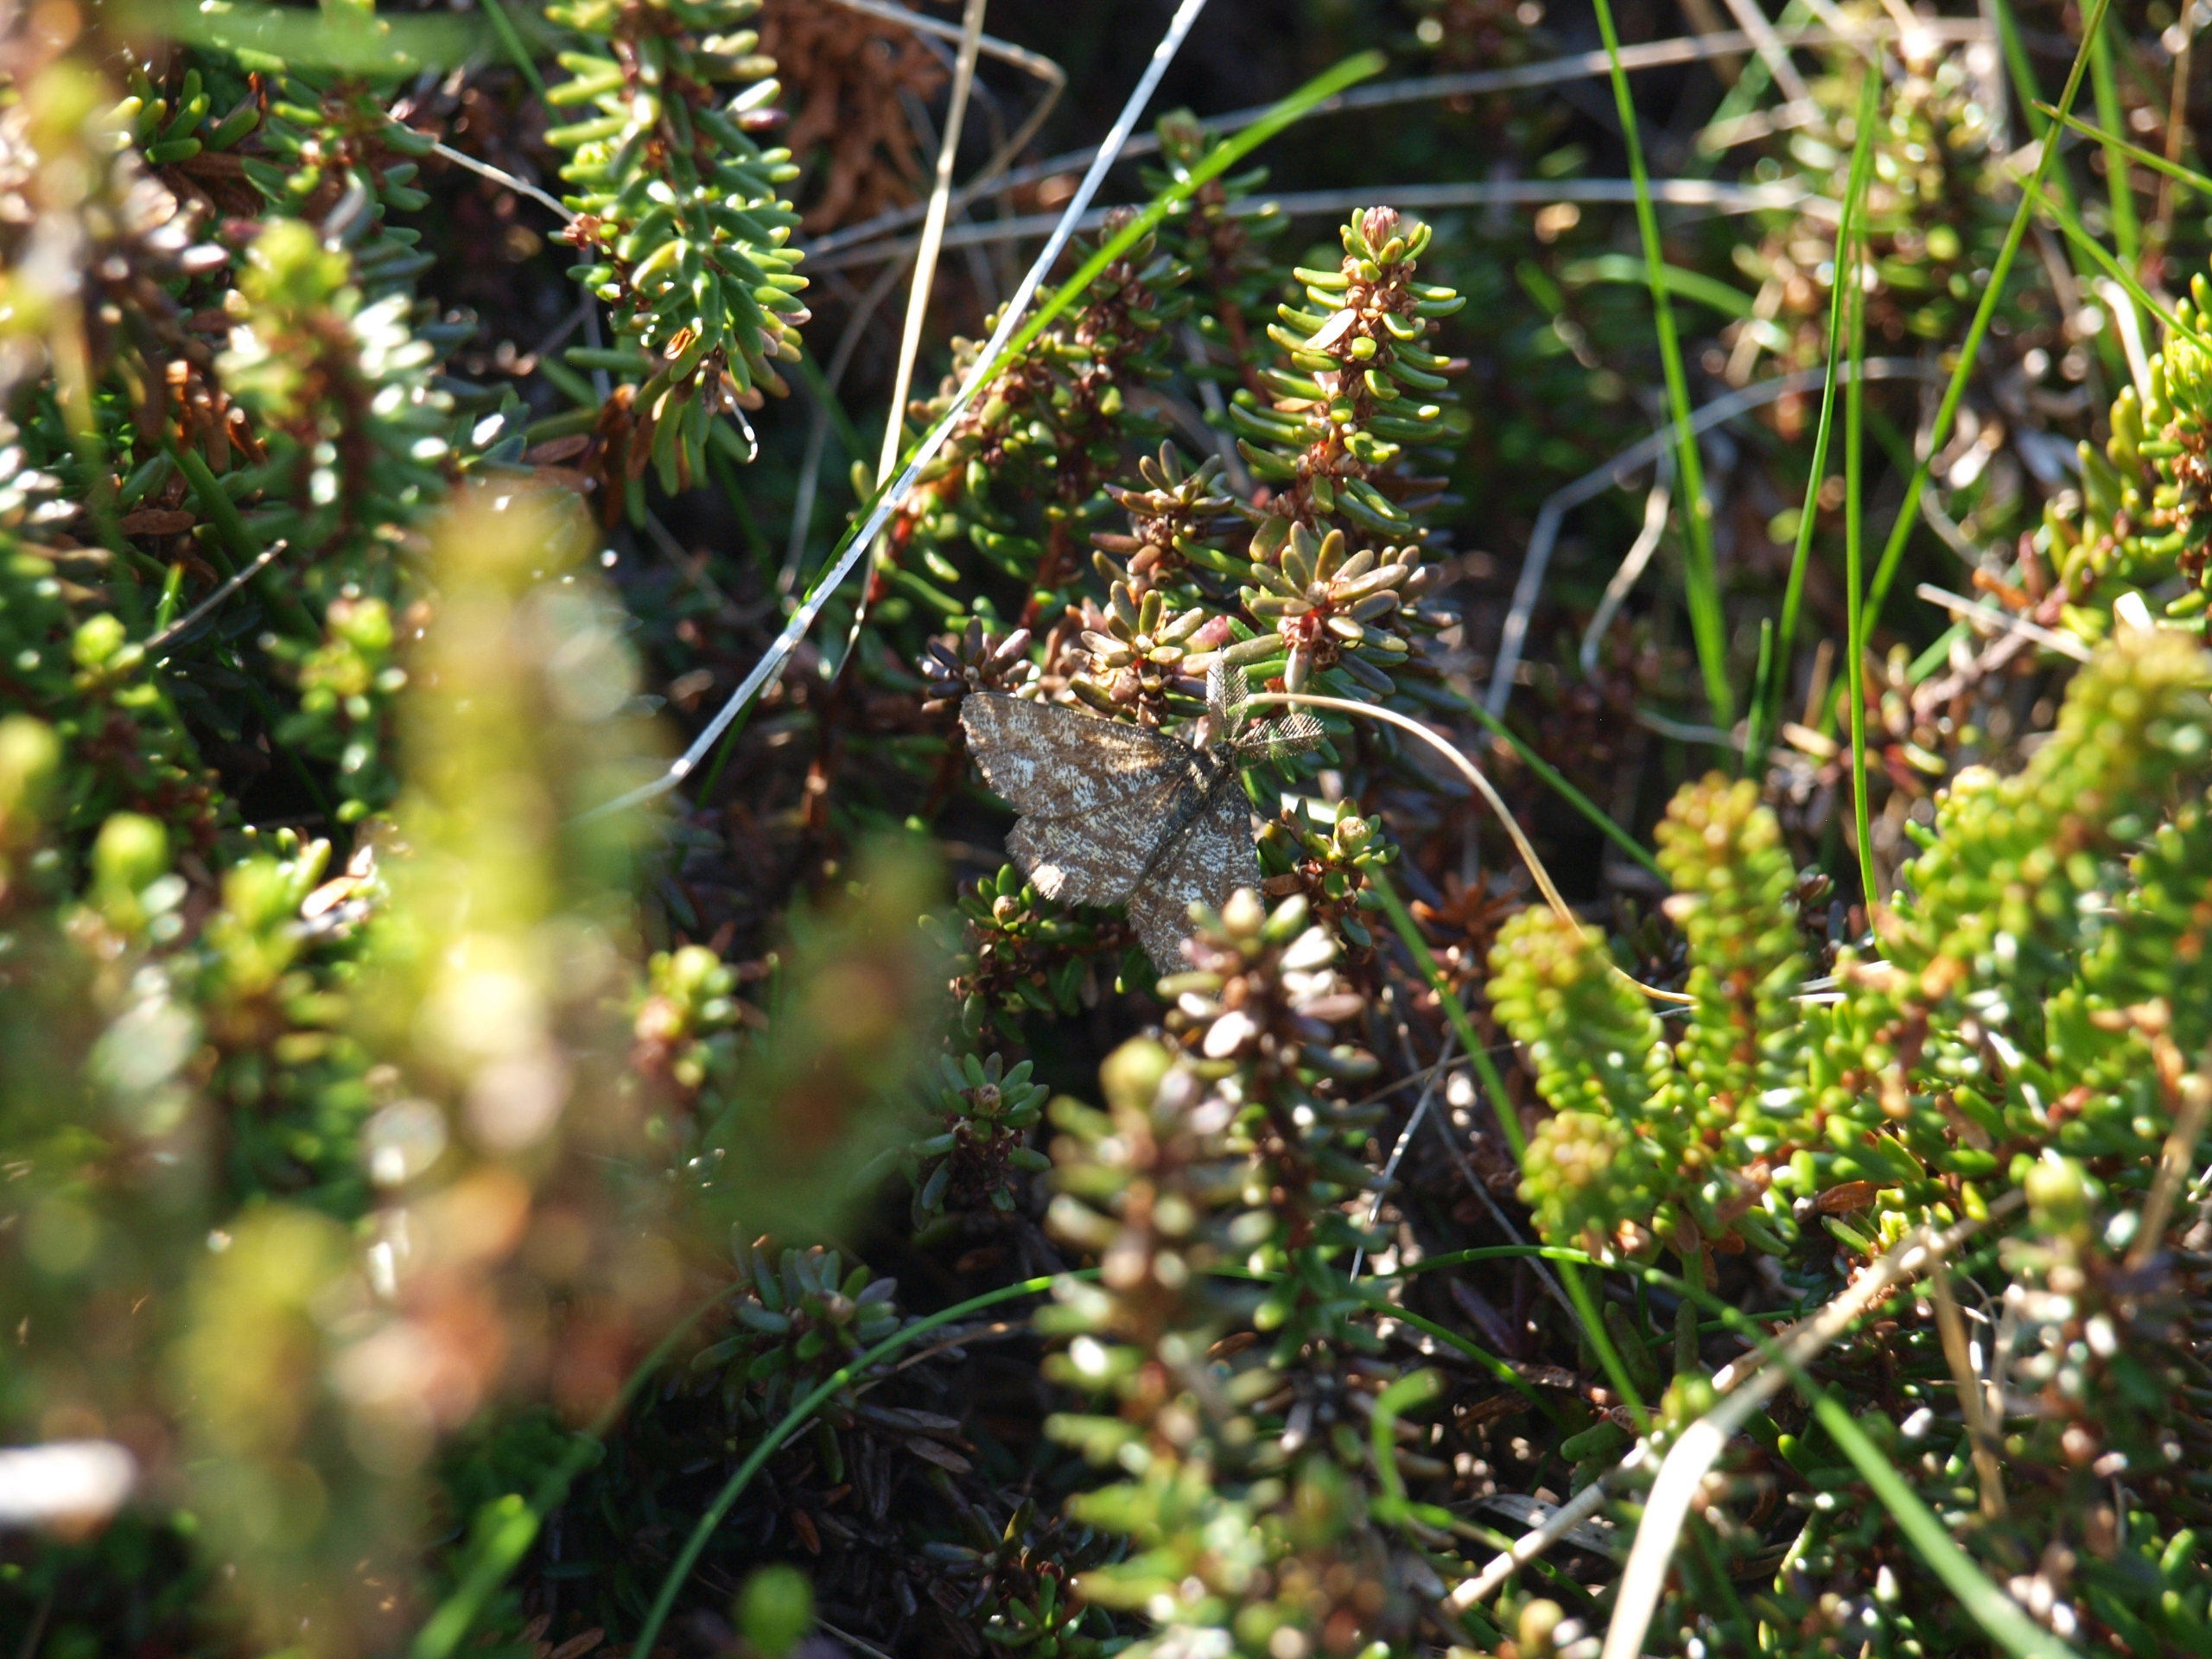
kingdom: Animalia
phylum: Arthropoda
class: Insecta
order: Lepidoptera
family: Geometridae
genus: Ematurga
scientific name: Ematurga atomaria
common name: Lyngmåler
